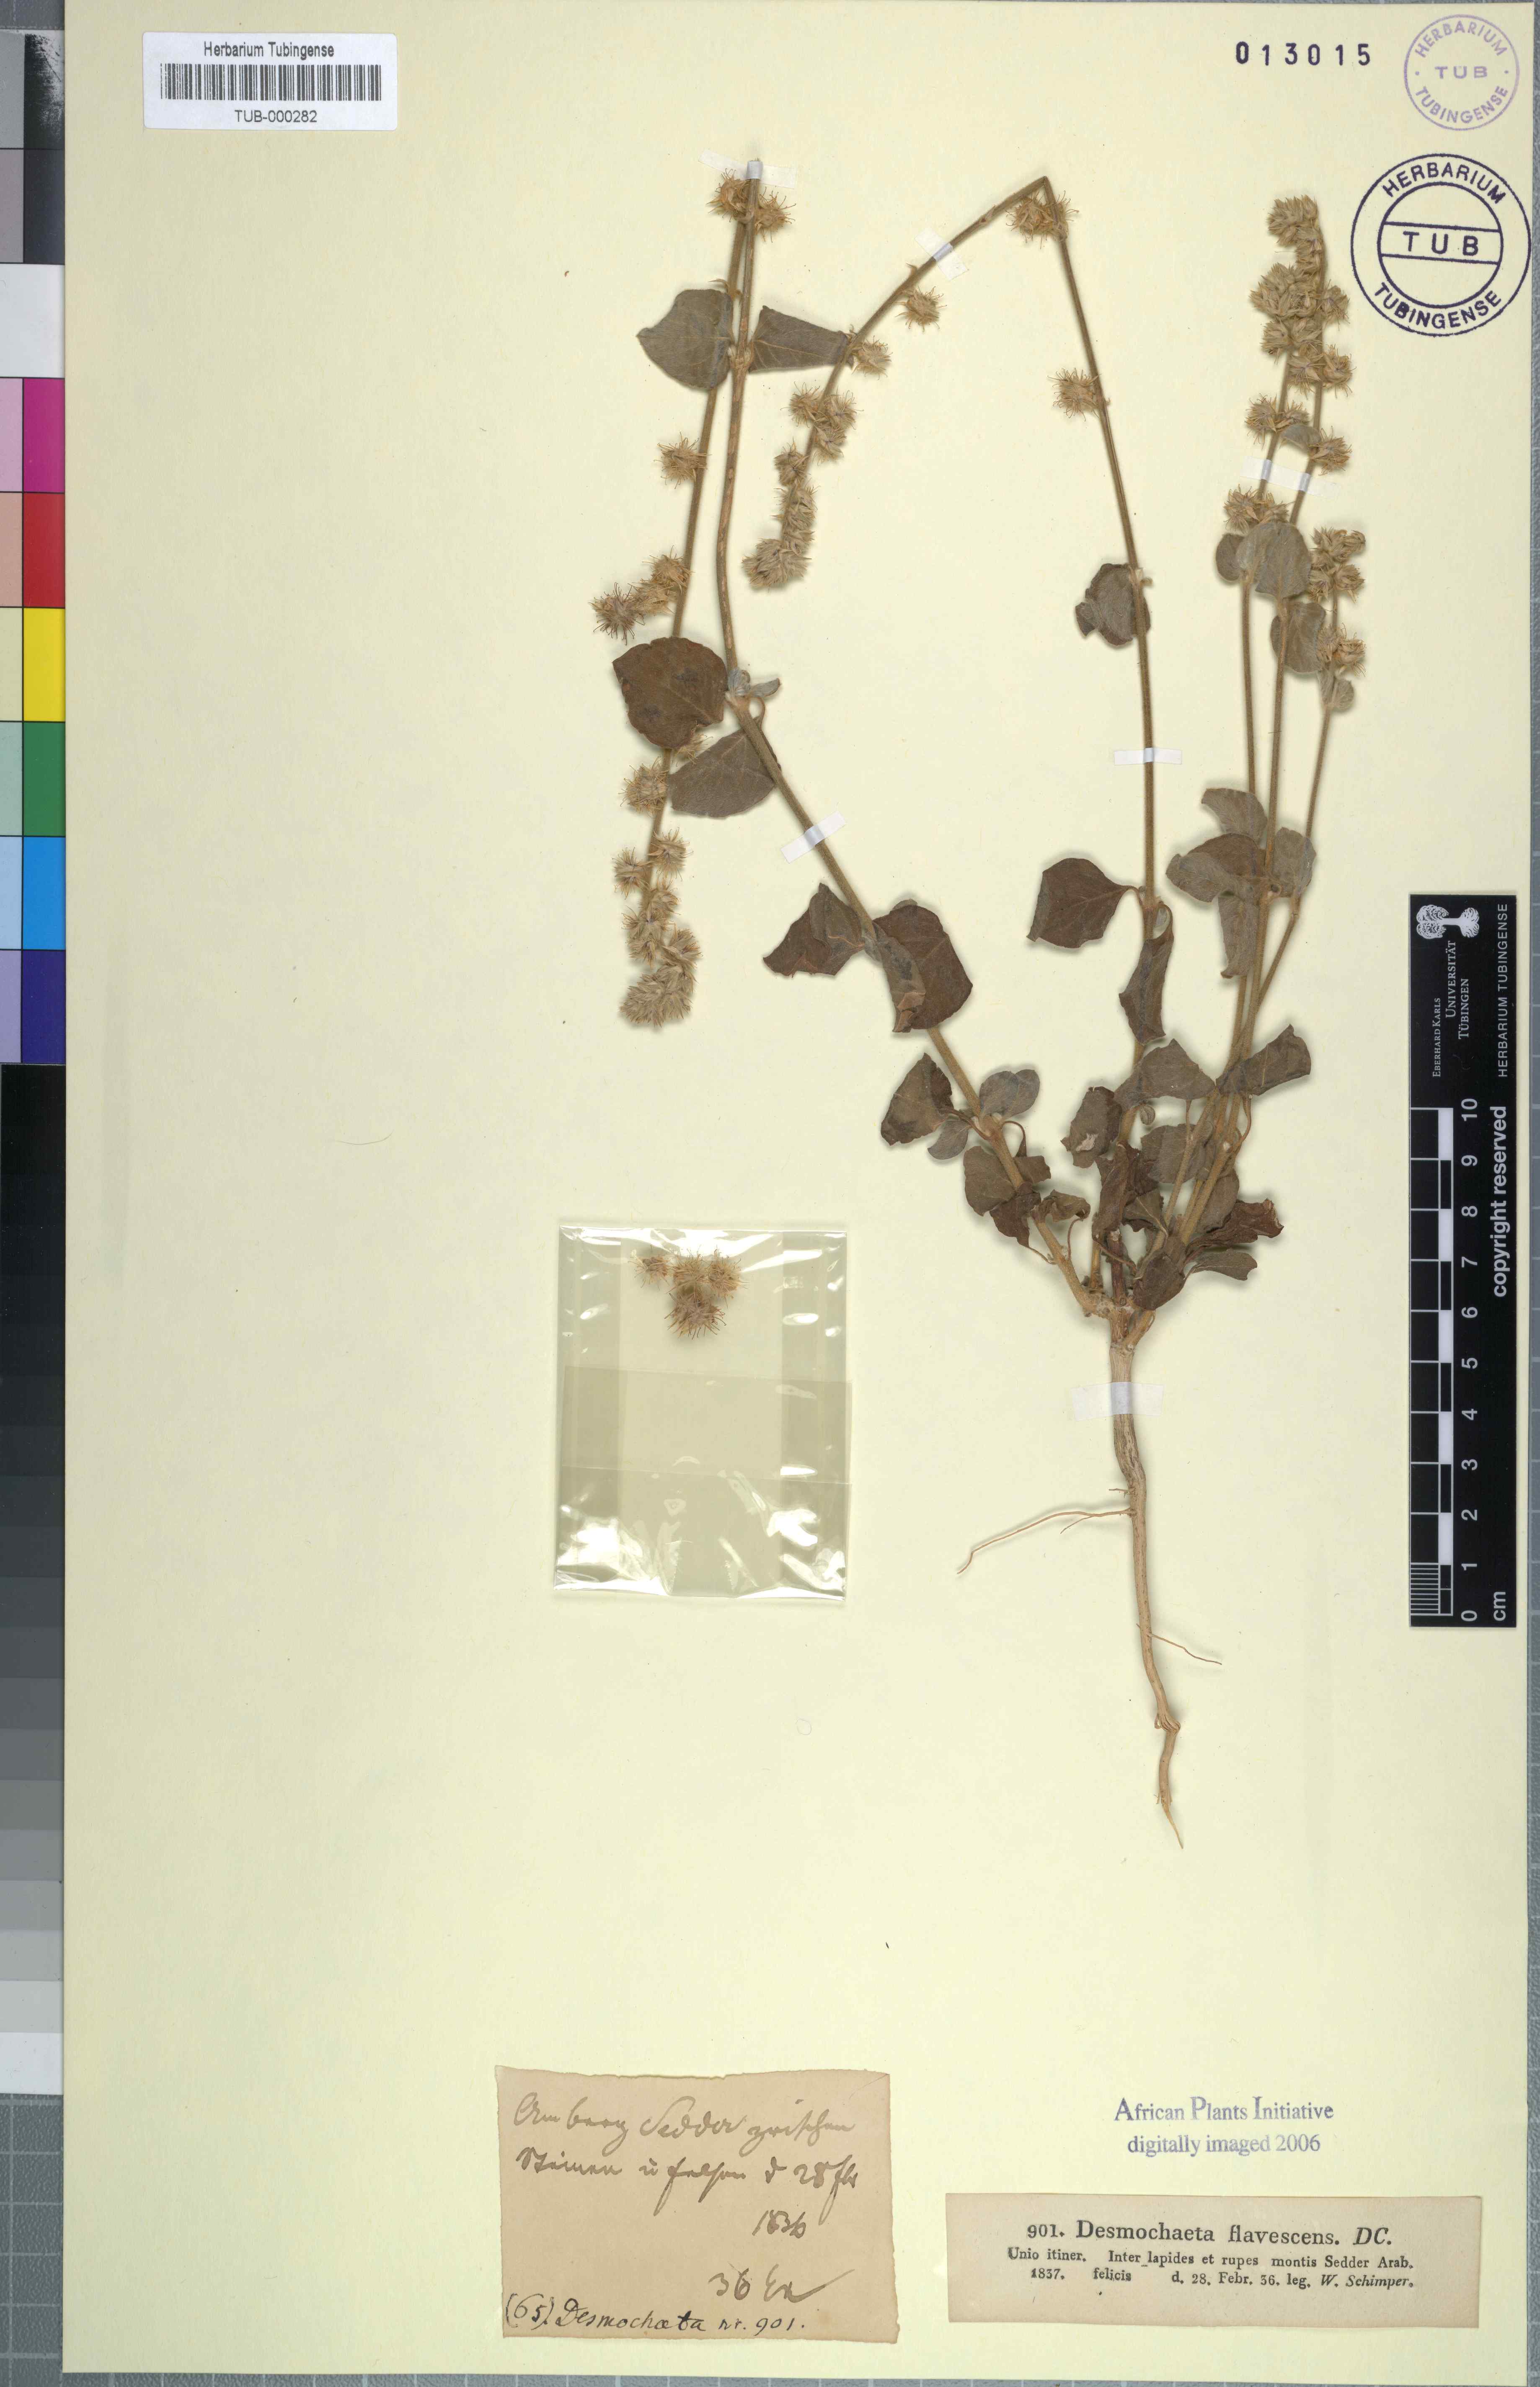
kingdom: Plantae
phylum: Tracheophyta
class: Magnoliopsida
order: Caryophyllales
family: Amaranthaceae
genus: Pupalia
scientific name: Pupalia lappacea
